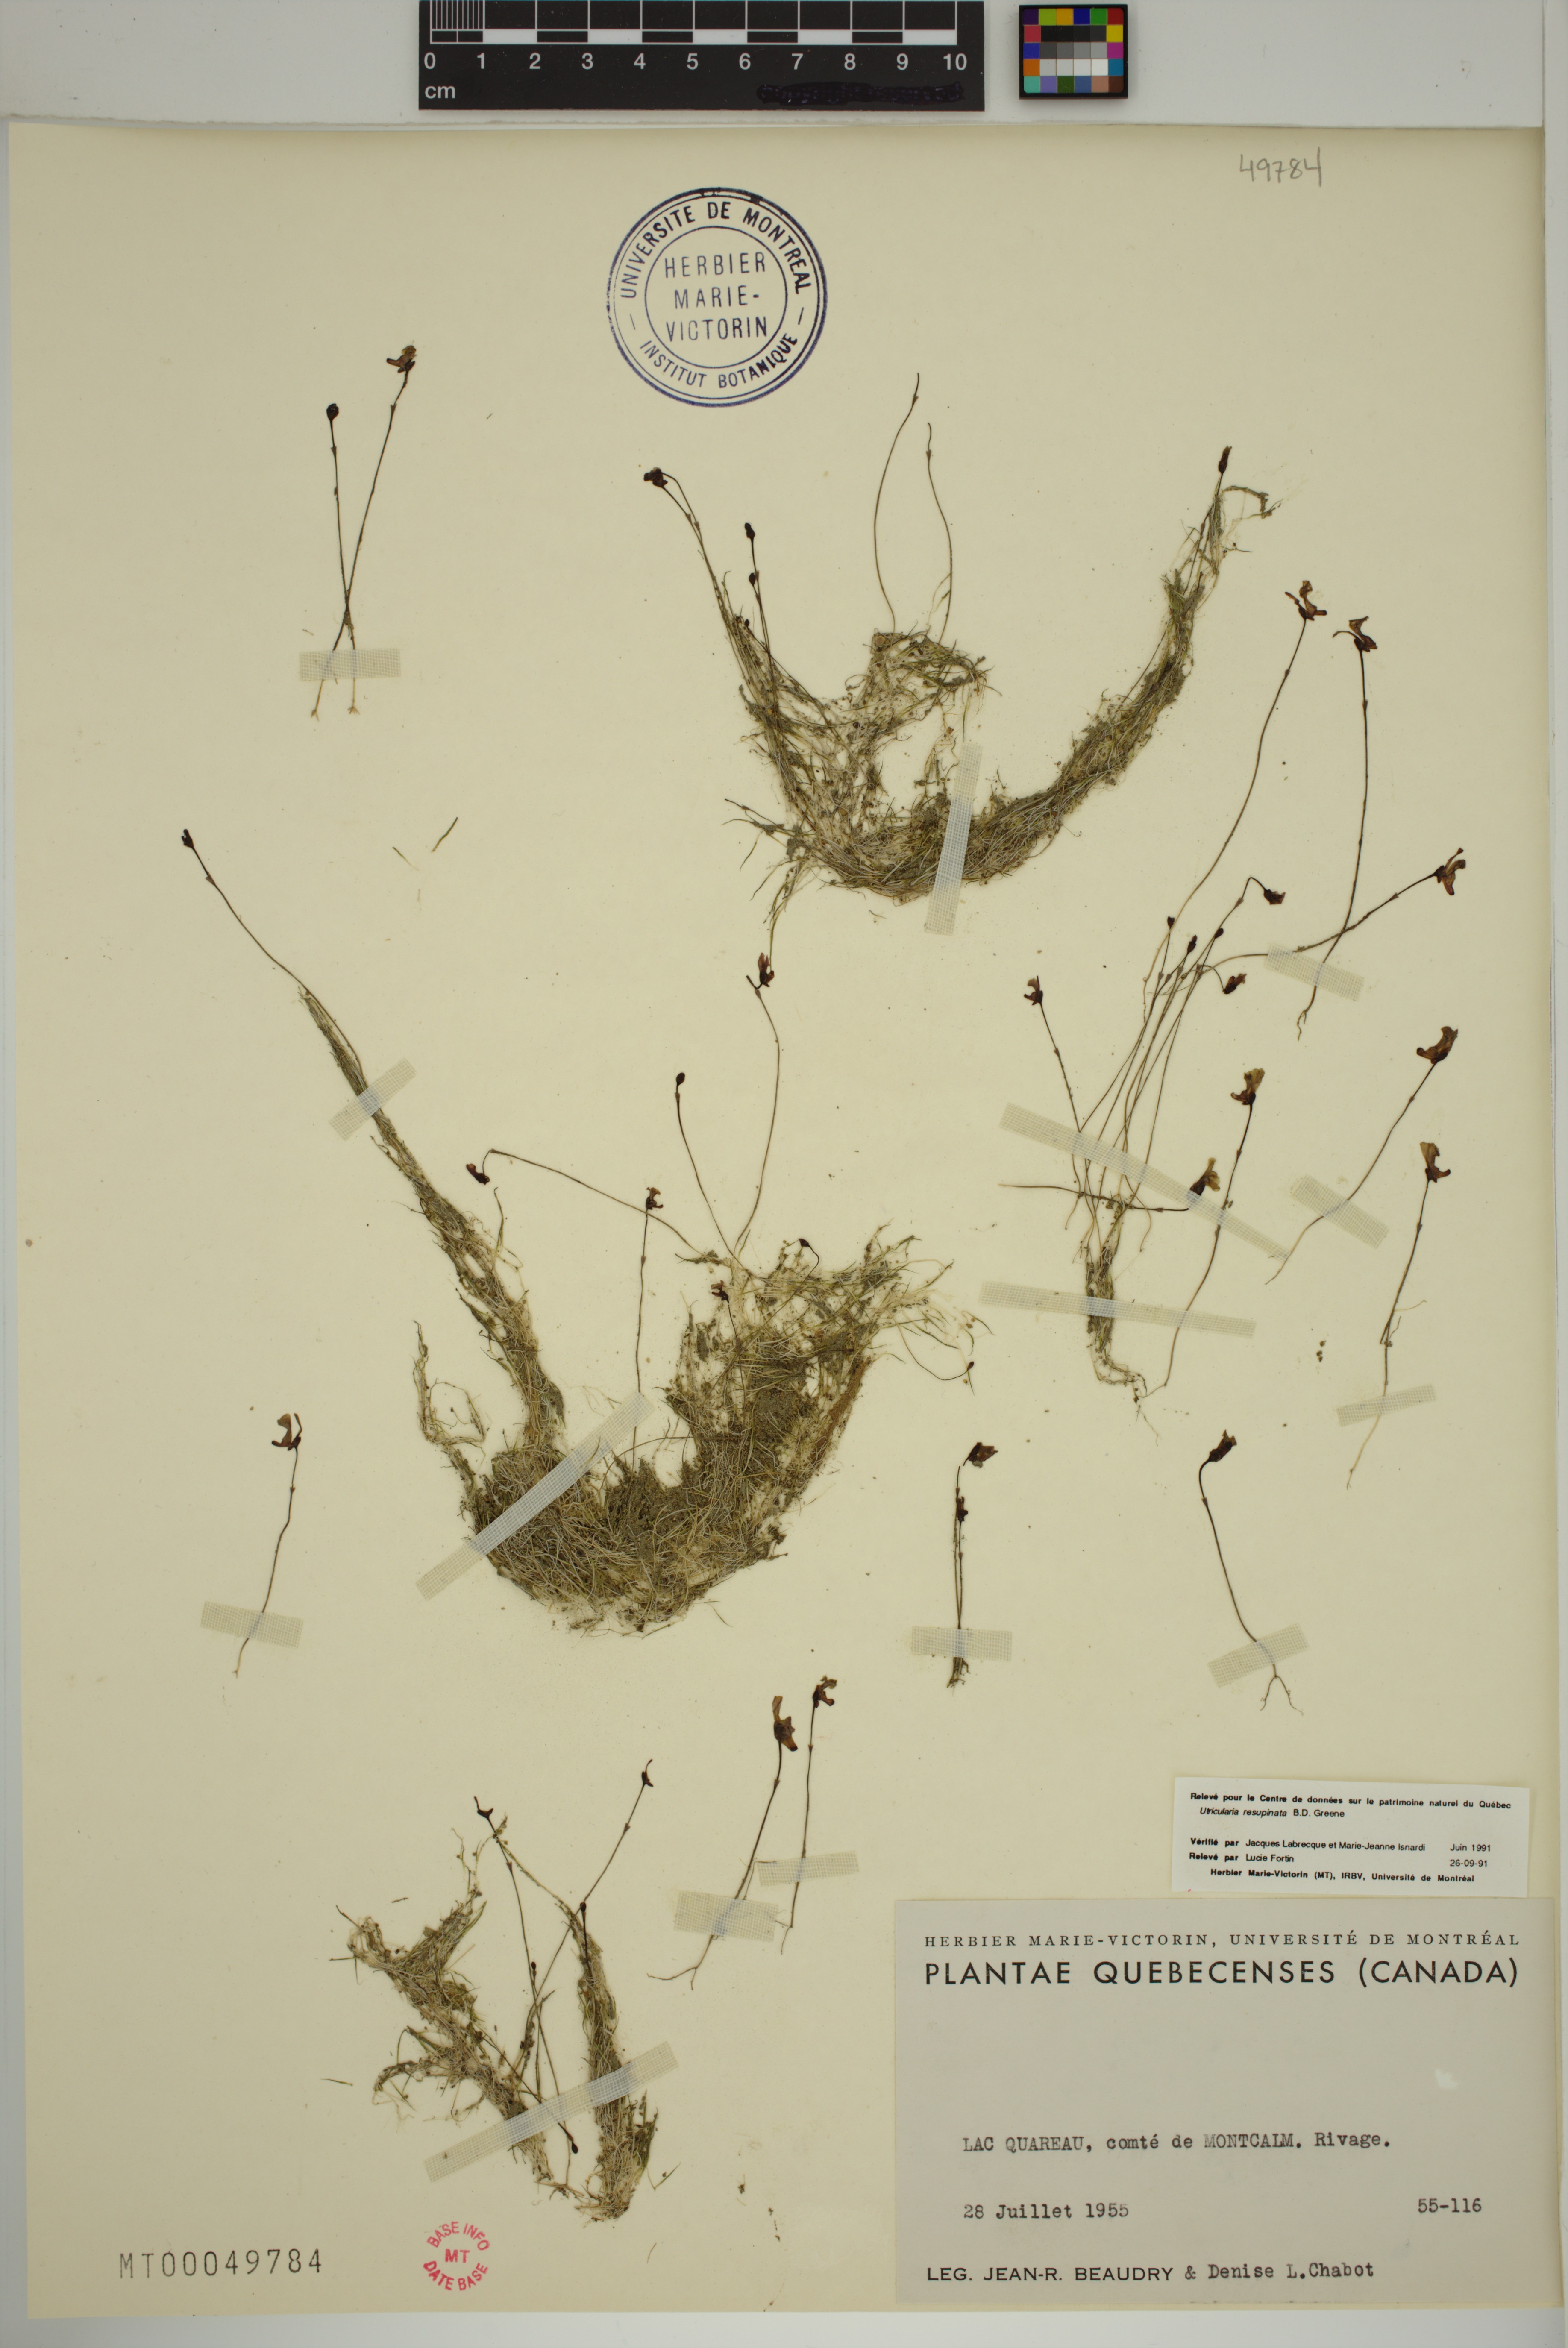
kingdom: Plantae
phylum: Tracheophyta
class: Magnoliopsida
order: Lamiales
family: Lentibulariaceae
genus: Utricularia
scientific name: Utricularia resupinata
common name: Northeastern bladderwort
